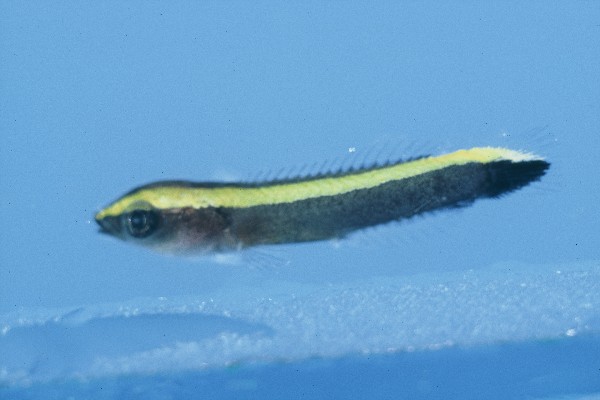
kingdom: Animalia
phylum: Chordata
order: Perciformes
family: Labridae
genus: Labroides
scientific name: Labroides bicolor
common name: Bicolor cleaner wrasse
